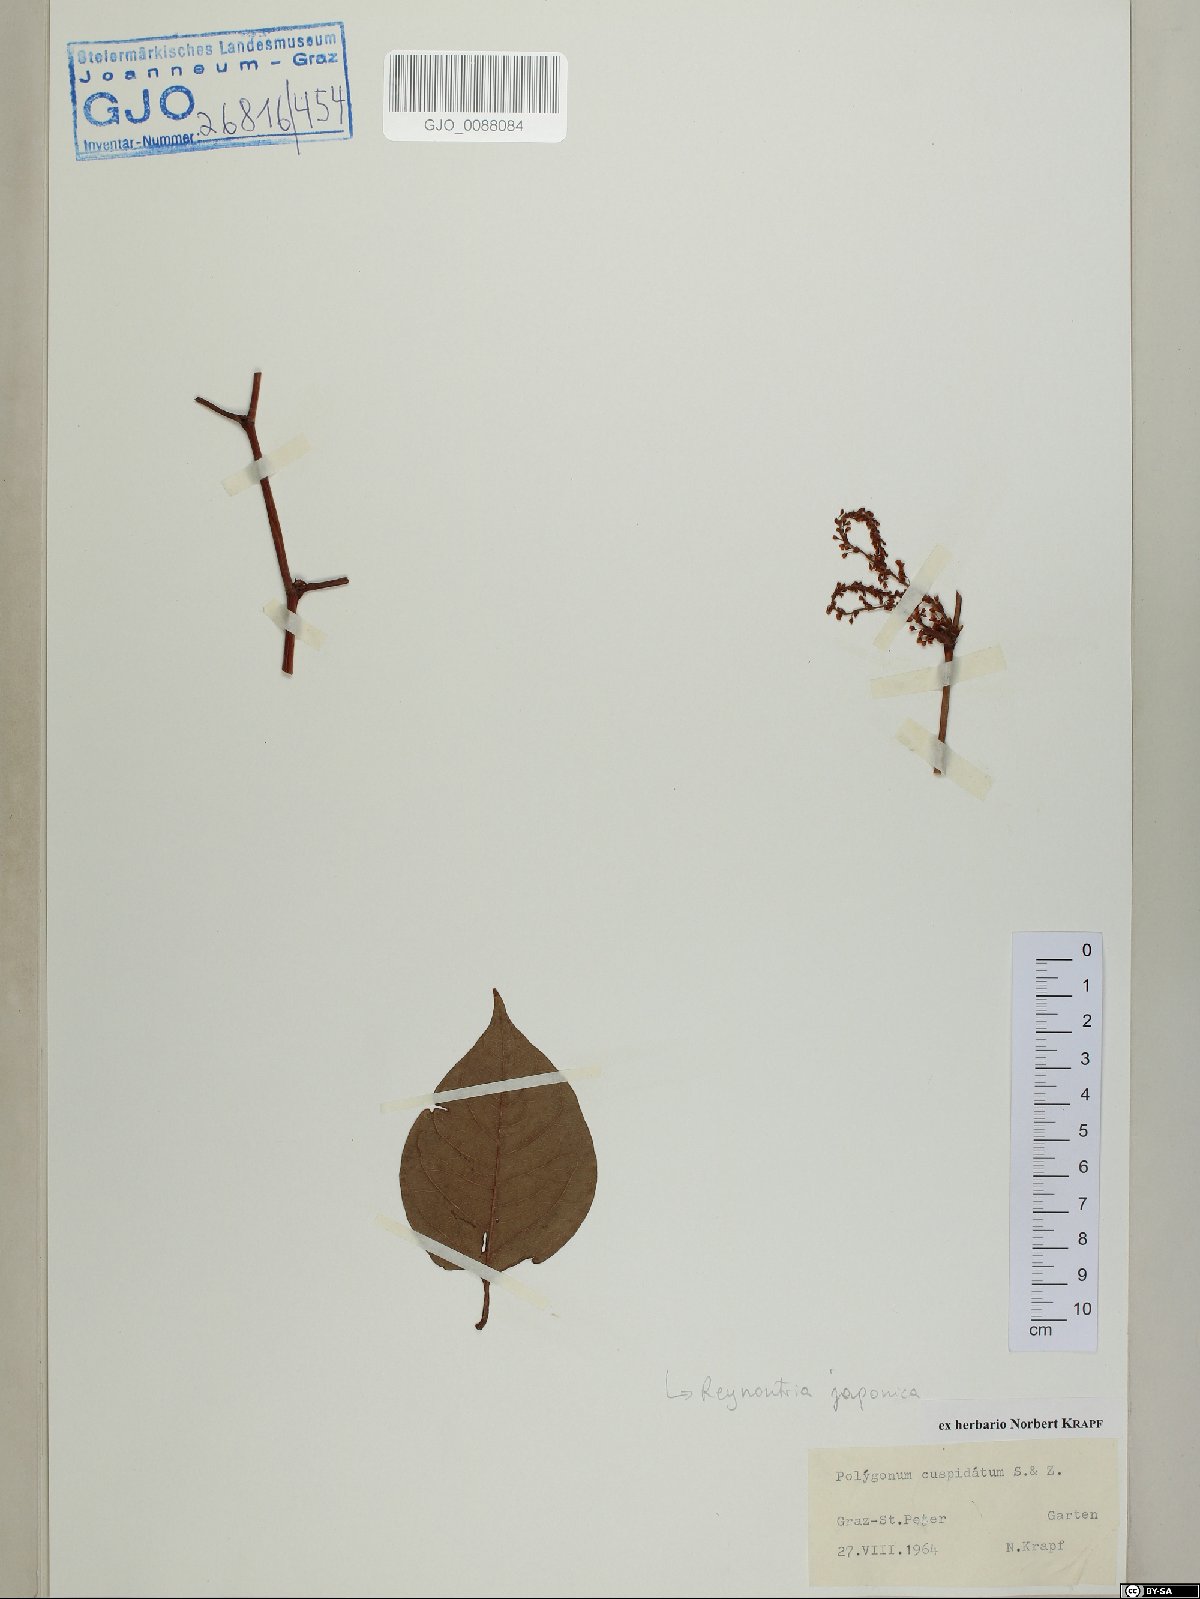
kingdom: Plantae
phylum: Tracheophyta
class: Magnoliopsida
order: Caryophyllales
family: Polygonaceae
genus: Reynoutria
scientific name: Reynoutria japonica
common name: Japanese knotweed
